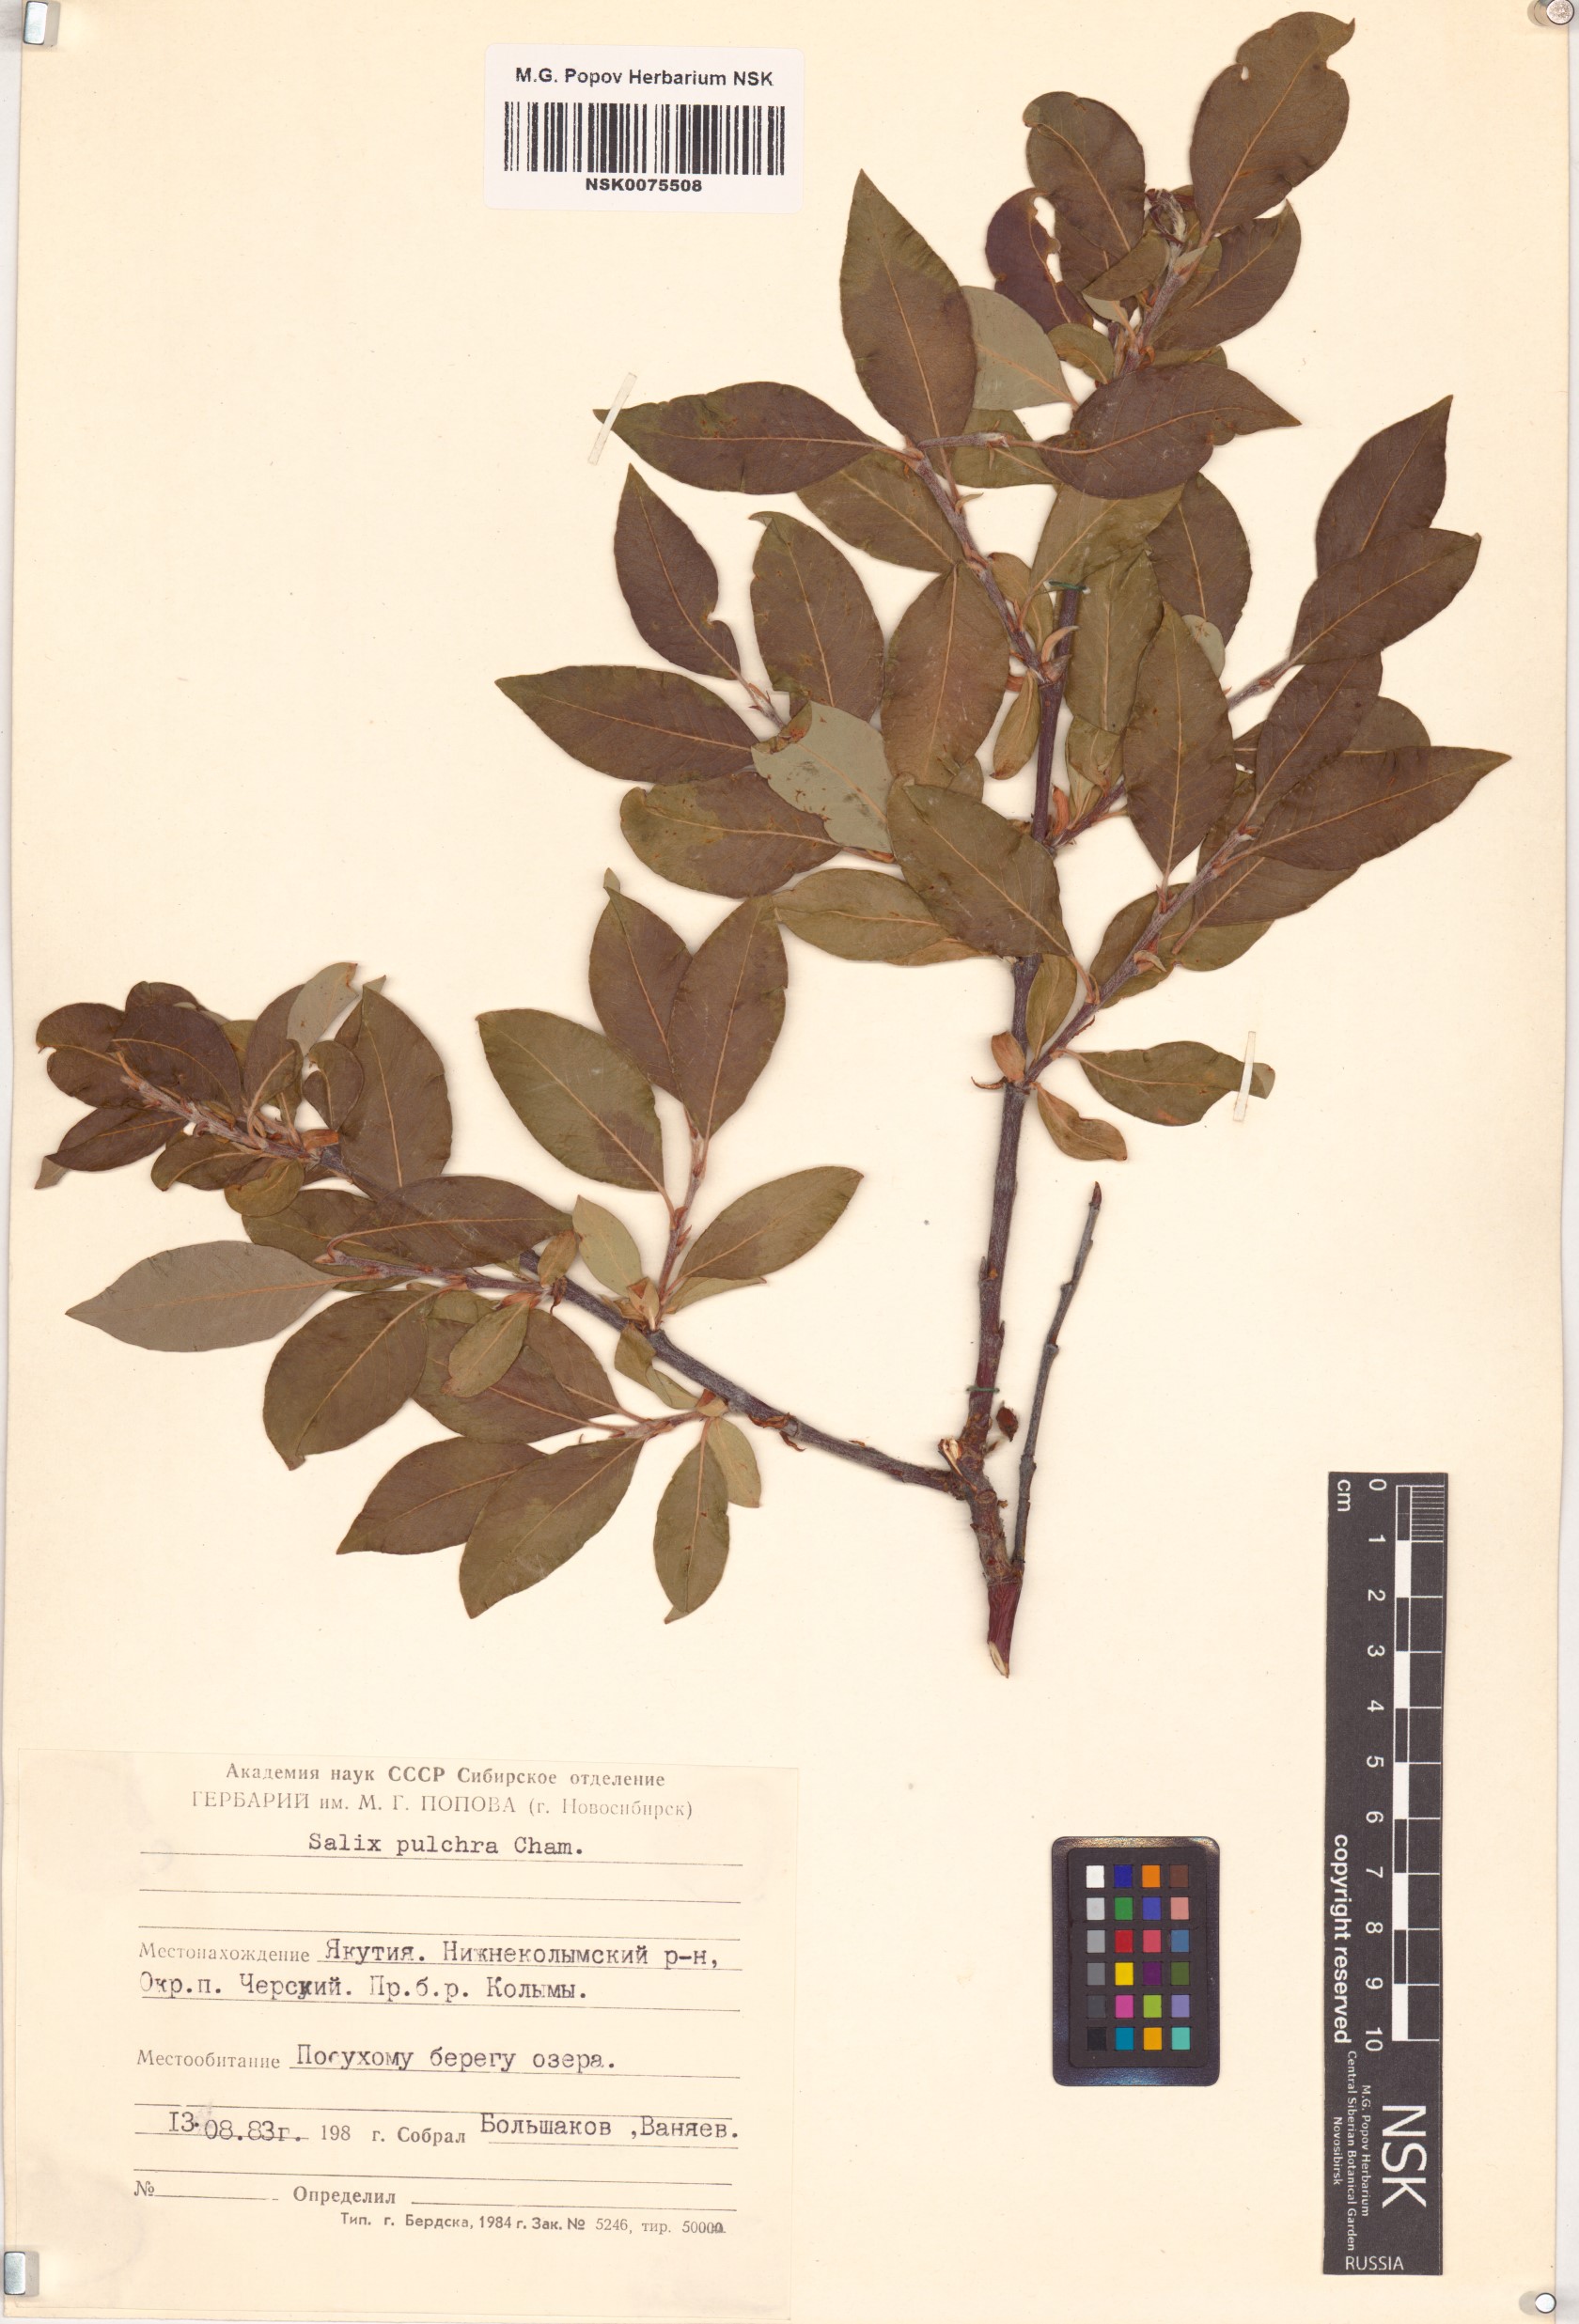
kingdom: Plantae
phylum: Tracheophyta
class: Magnoliopsida
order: Malpighiales
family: Salicaceae
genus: Salix
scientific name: Salix pulchra
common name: Diamond-leaved willow
